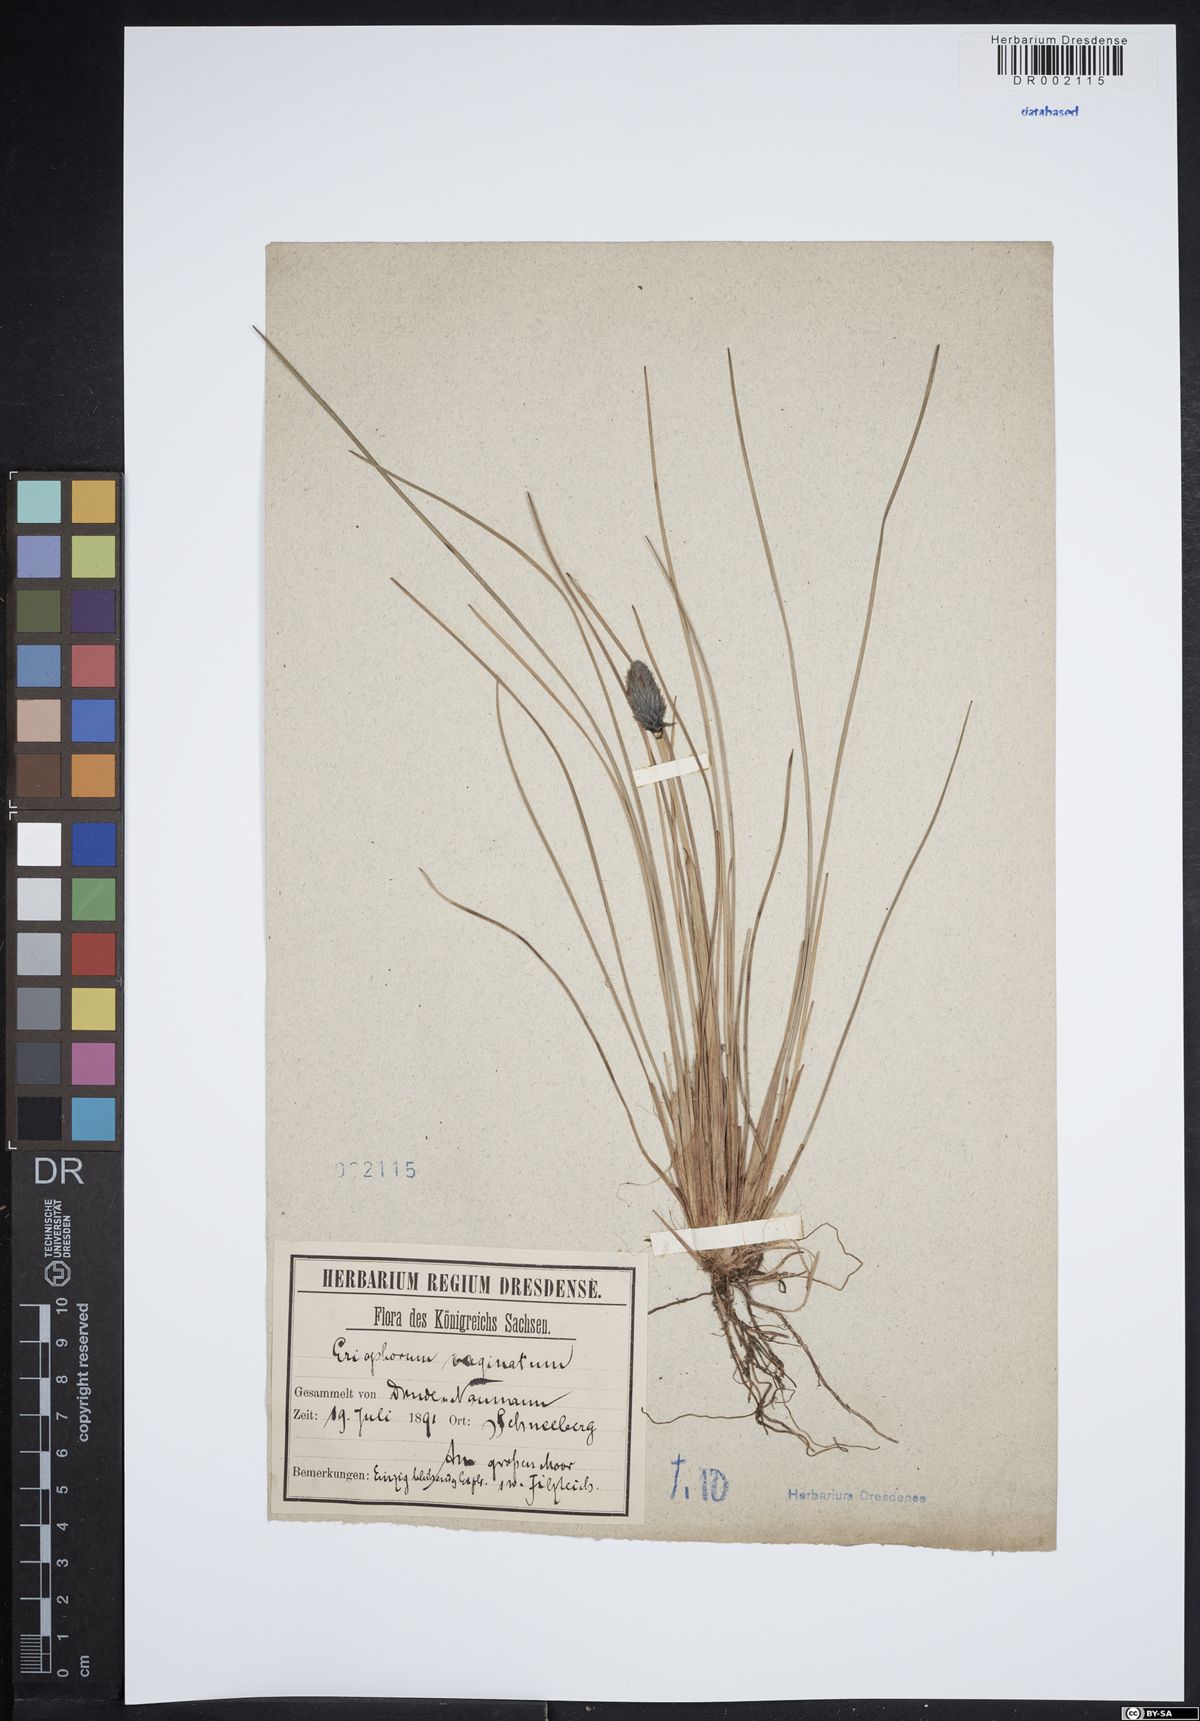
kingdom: Plantae
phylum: Tracheophyta
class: Liliopsida
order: Poales
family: Cyperaceae
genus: Eriophorum
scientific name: Eriophorum vaginatum
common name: Hare's-tail cottongrass
